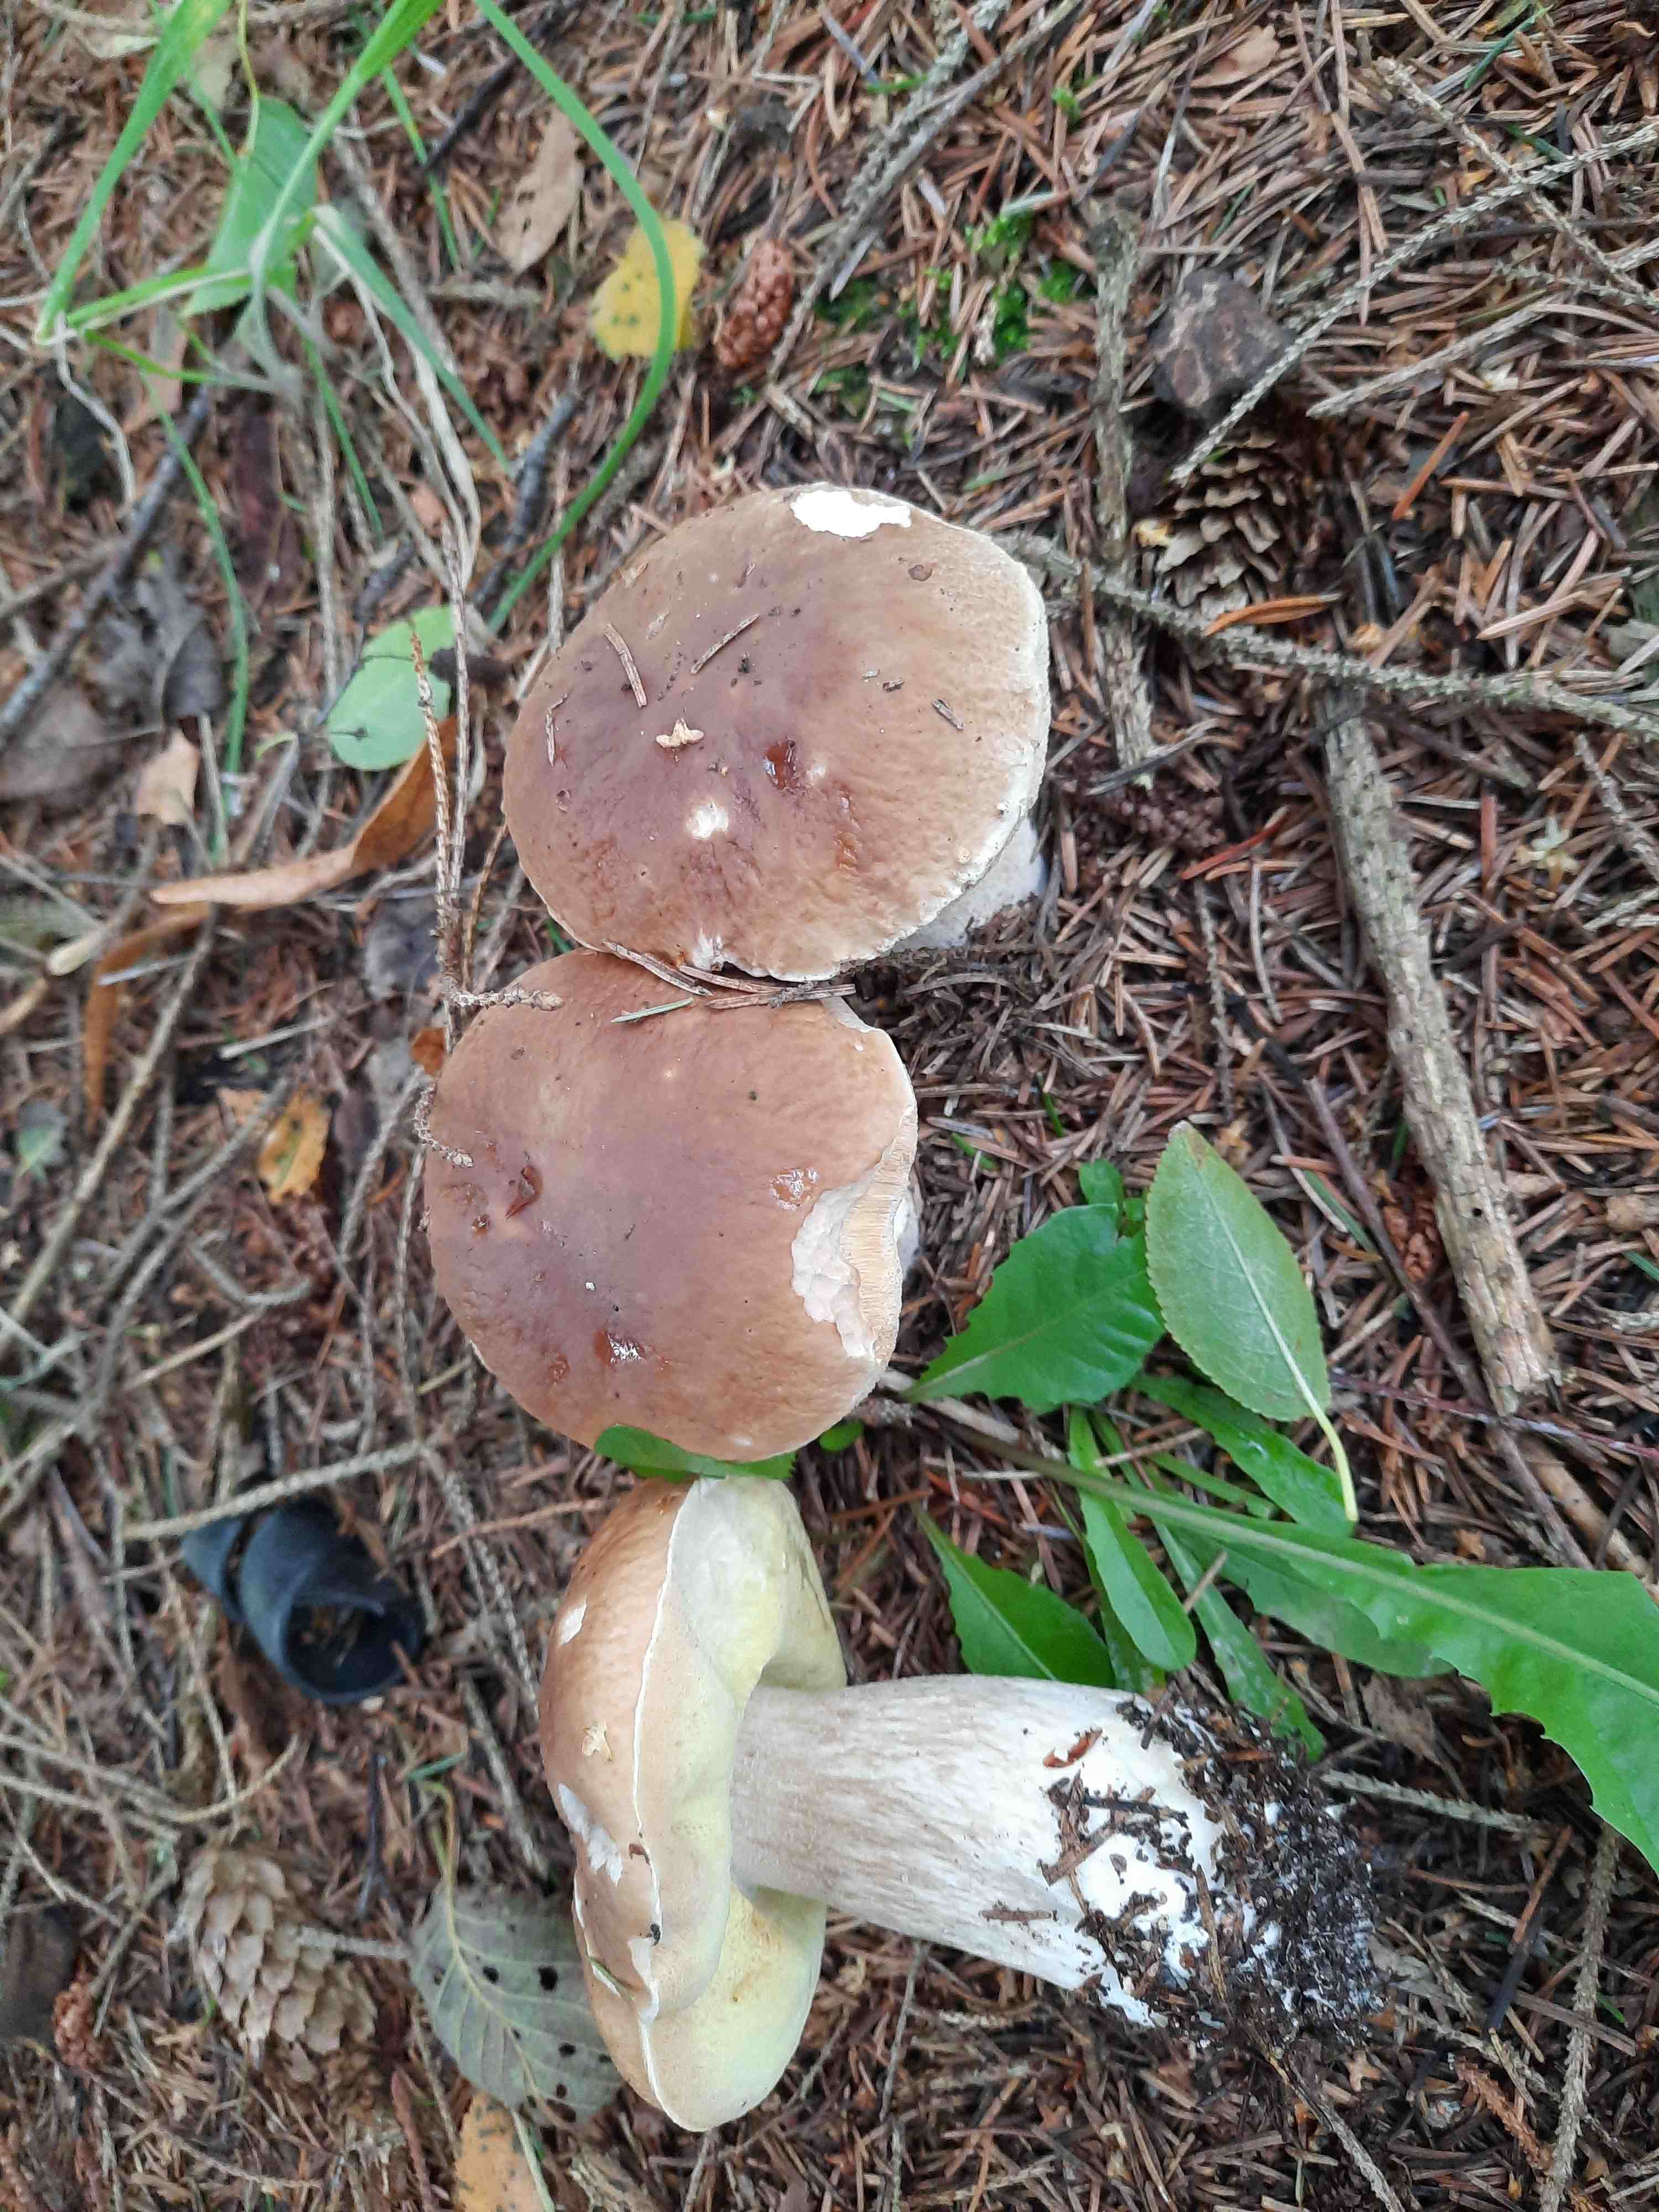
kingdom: Fungi
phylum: Basidiomycota
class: Agaricomycetes
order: Boletales
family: Boletaceae
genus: Boletus
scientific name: Boletus edulis
